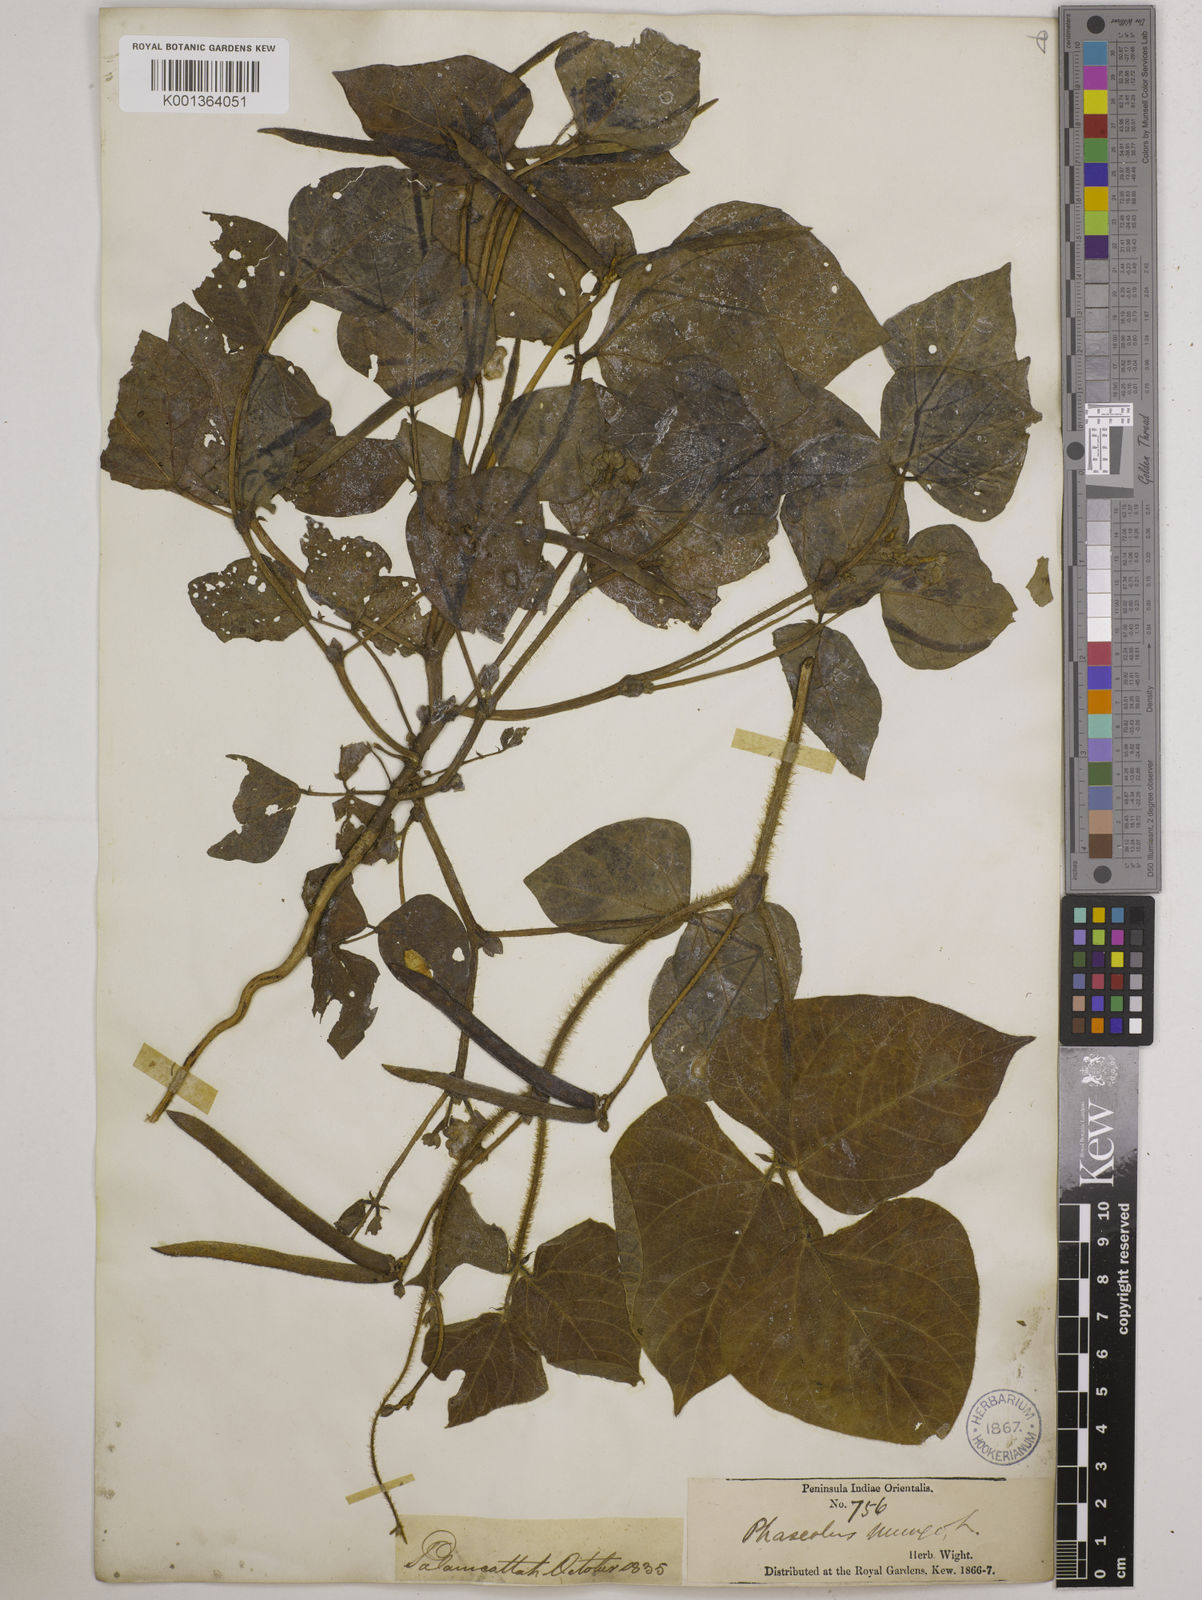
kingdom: Plantae
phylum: Tracheophyta
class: Magnoliopsida
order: Fabales
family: Fabaceae
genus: Vigna
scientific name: Vigna radiata
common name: Mung-bean
